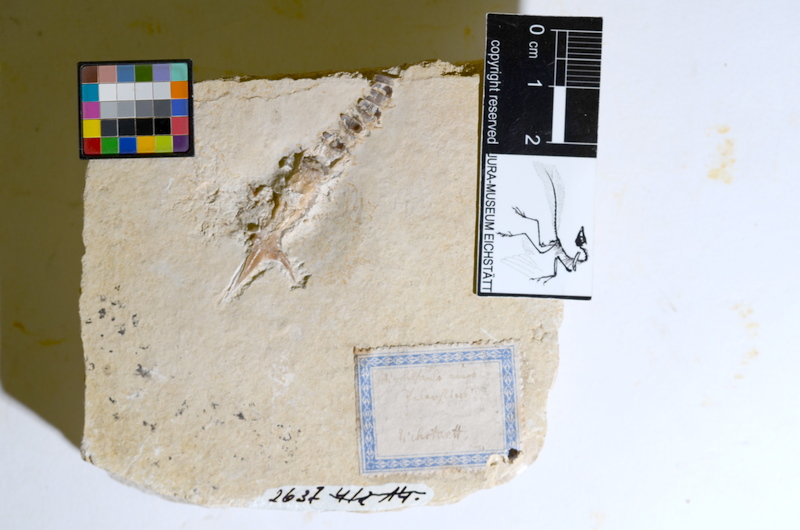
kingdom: Animalia
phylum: Chordata
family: Aspidorhynchidae
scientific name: Aspidorhynchidae
